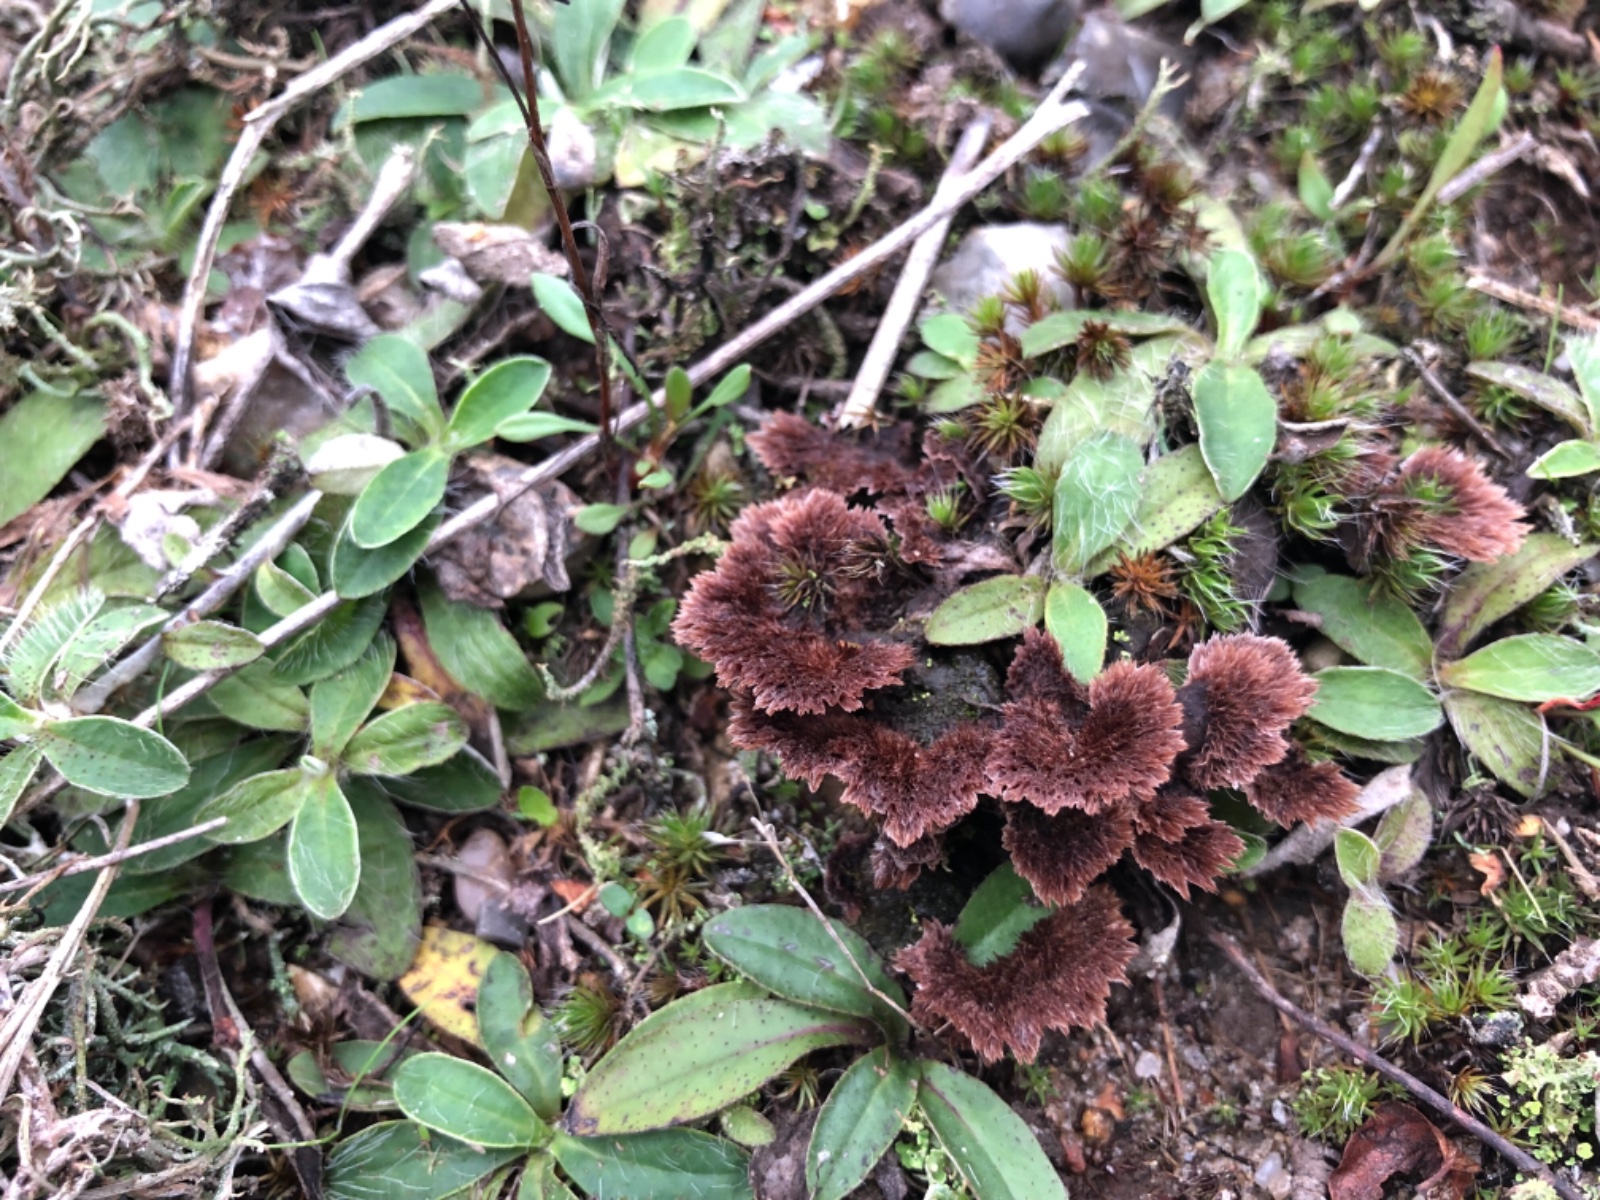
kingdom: Fungi
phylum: Basidiomycota
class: Agaricomycetes
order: Thelephorales
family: Thelephoraceae
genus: Thelephora
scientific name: Thelephora terrestris
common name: fliget frynsesvamp
